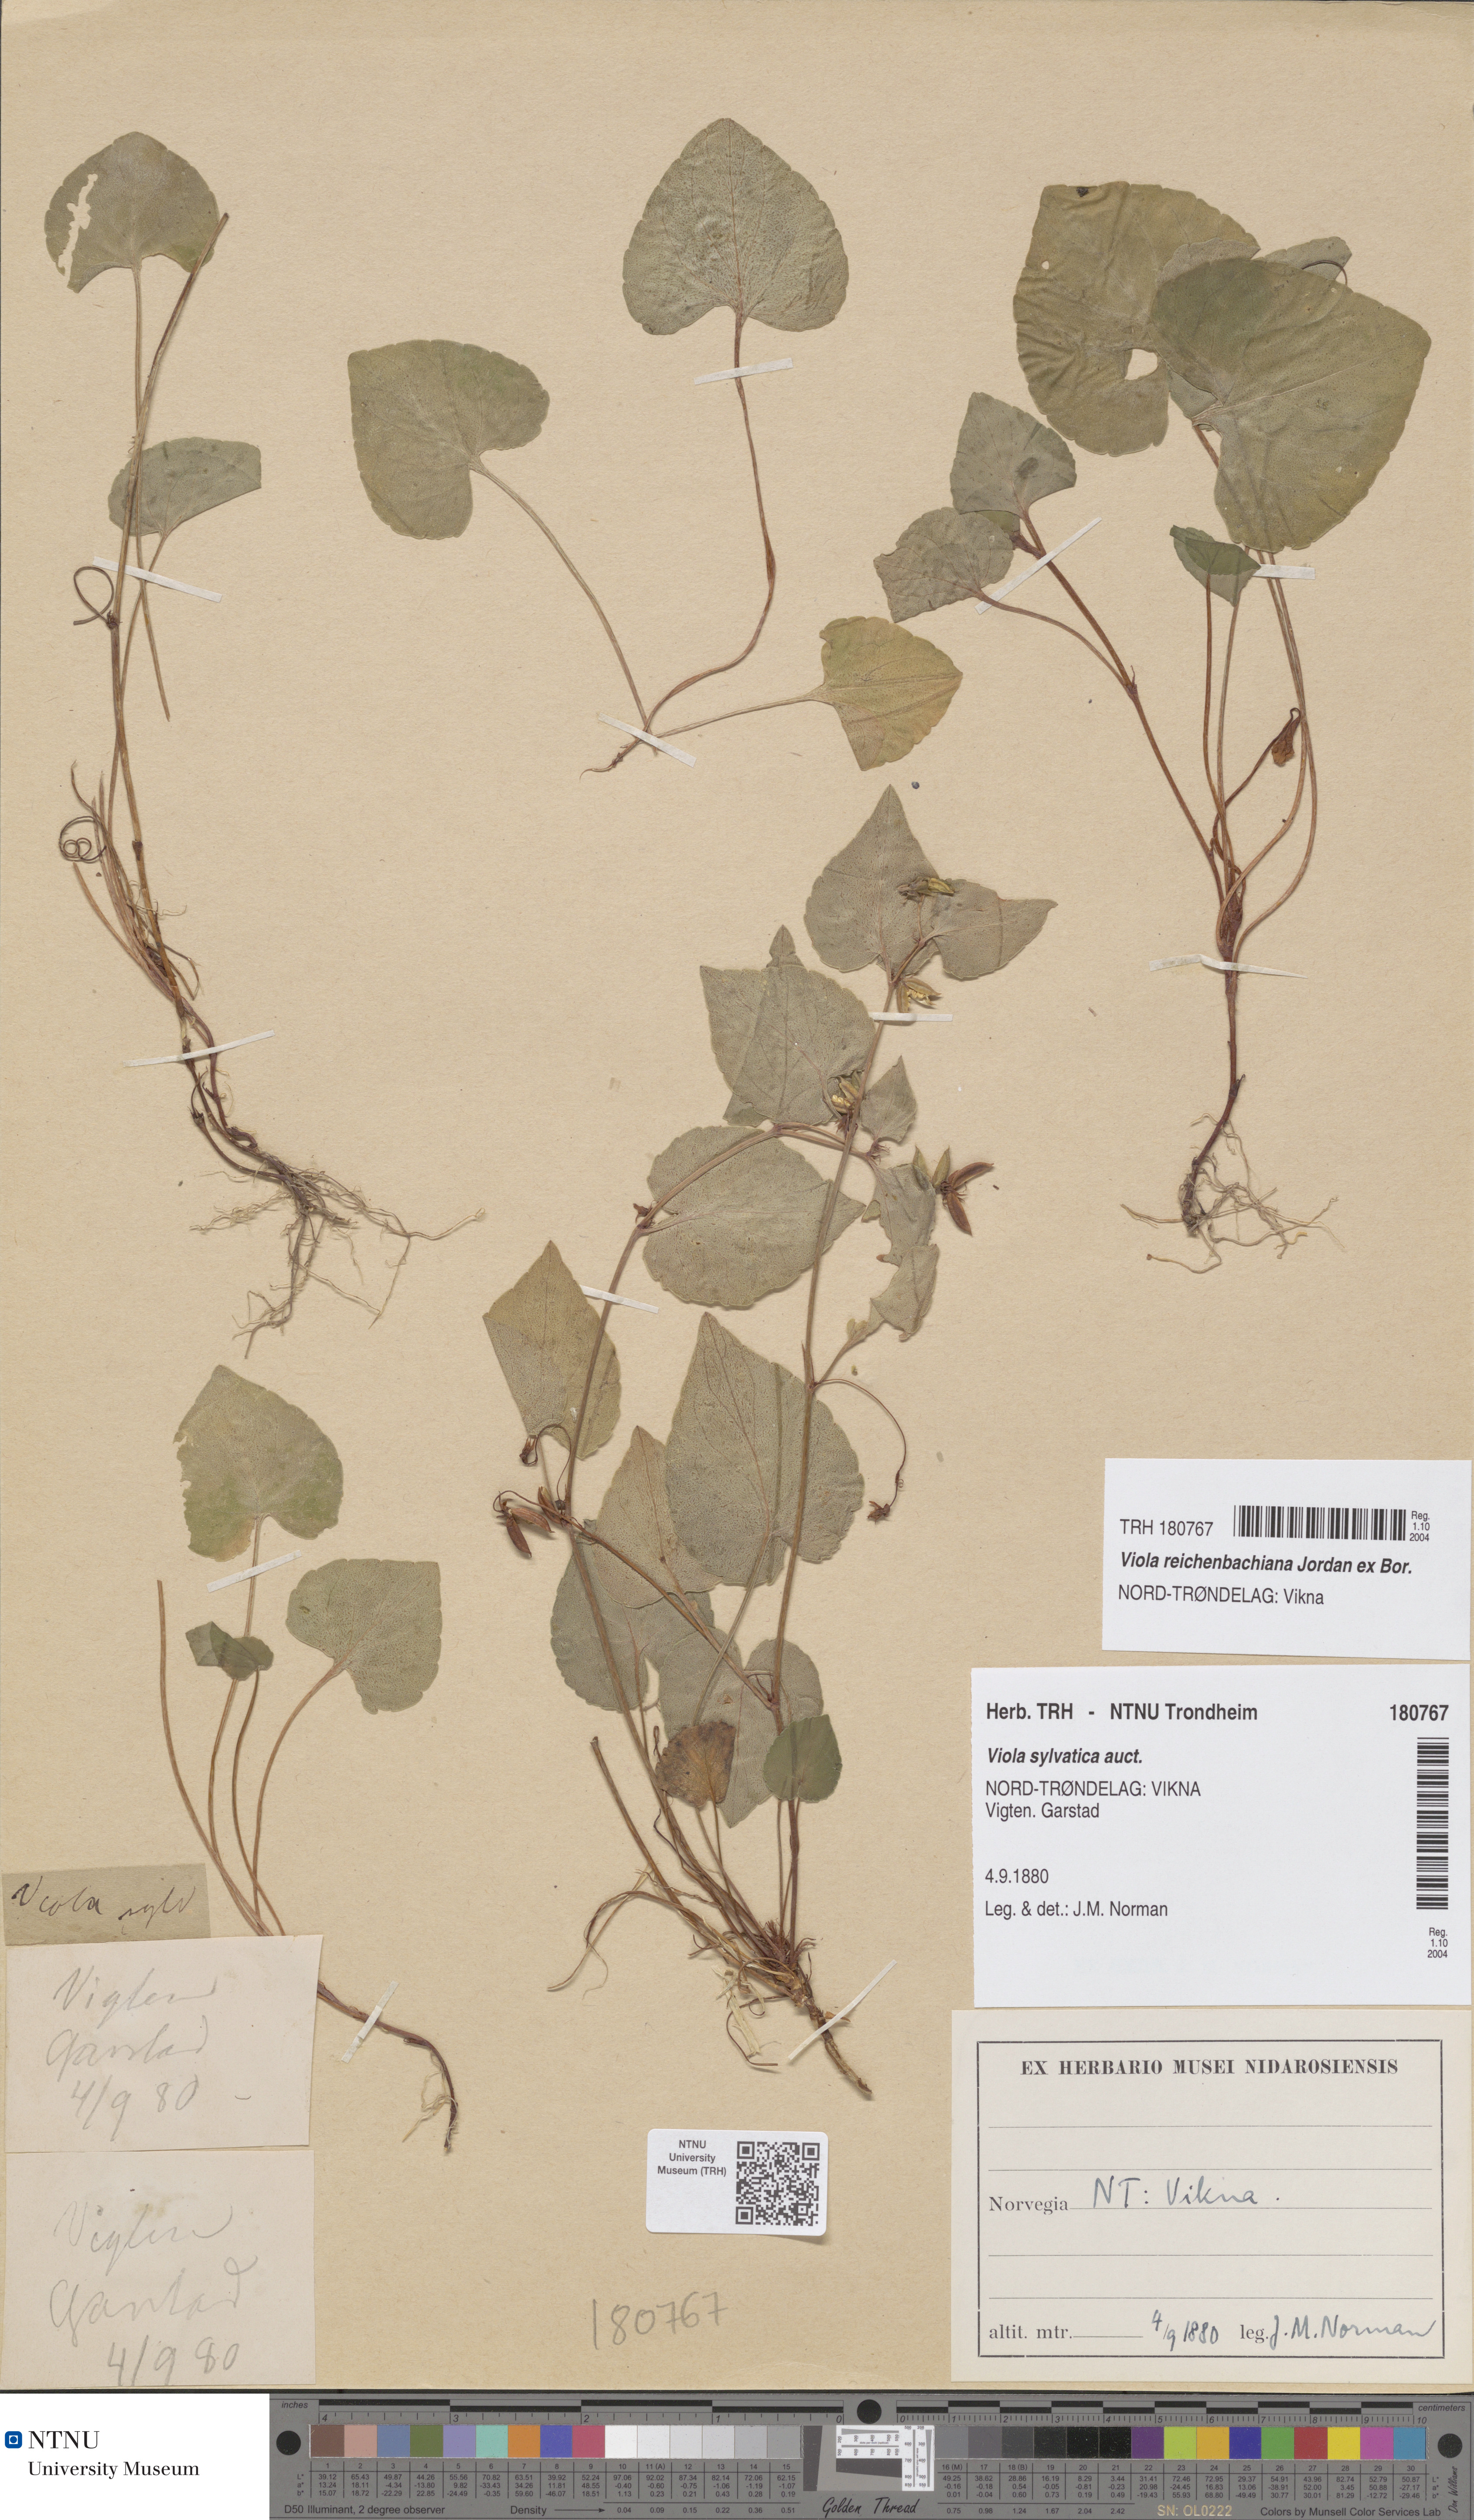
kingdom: Plantae
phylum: Tracheophyta
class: Magnoliopsida
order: Malpighiales
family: Violaceae
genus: Viola
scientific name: Viola riviniana
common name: Common dog-violet
